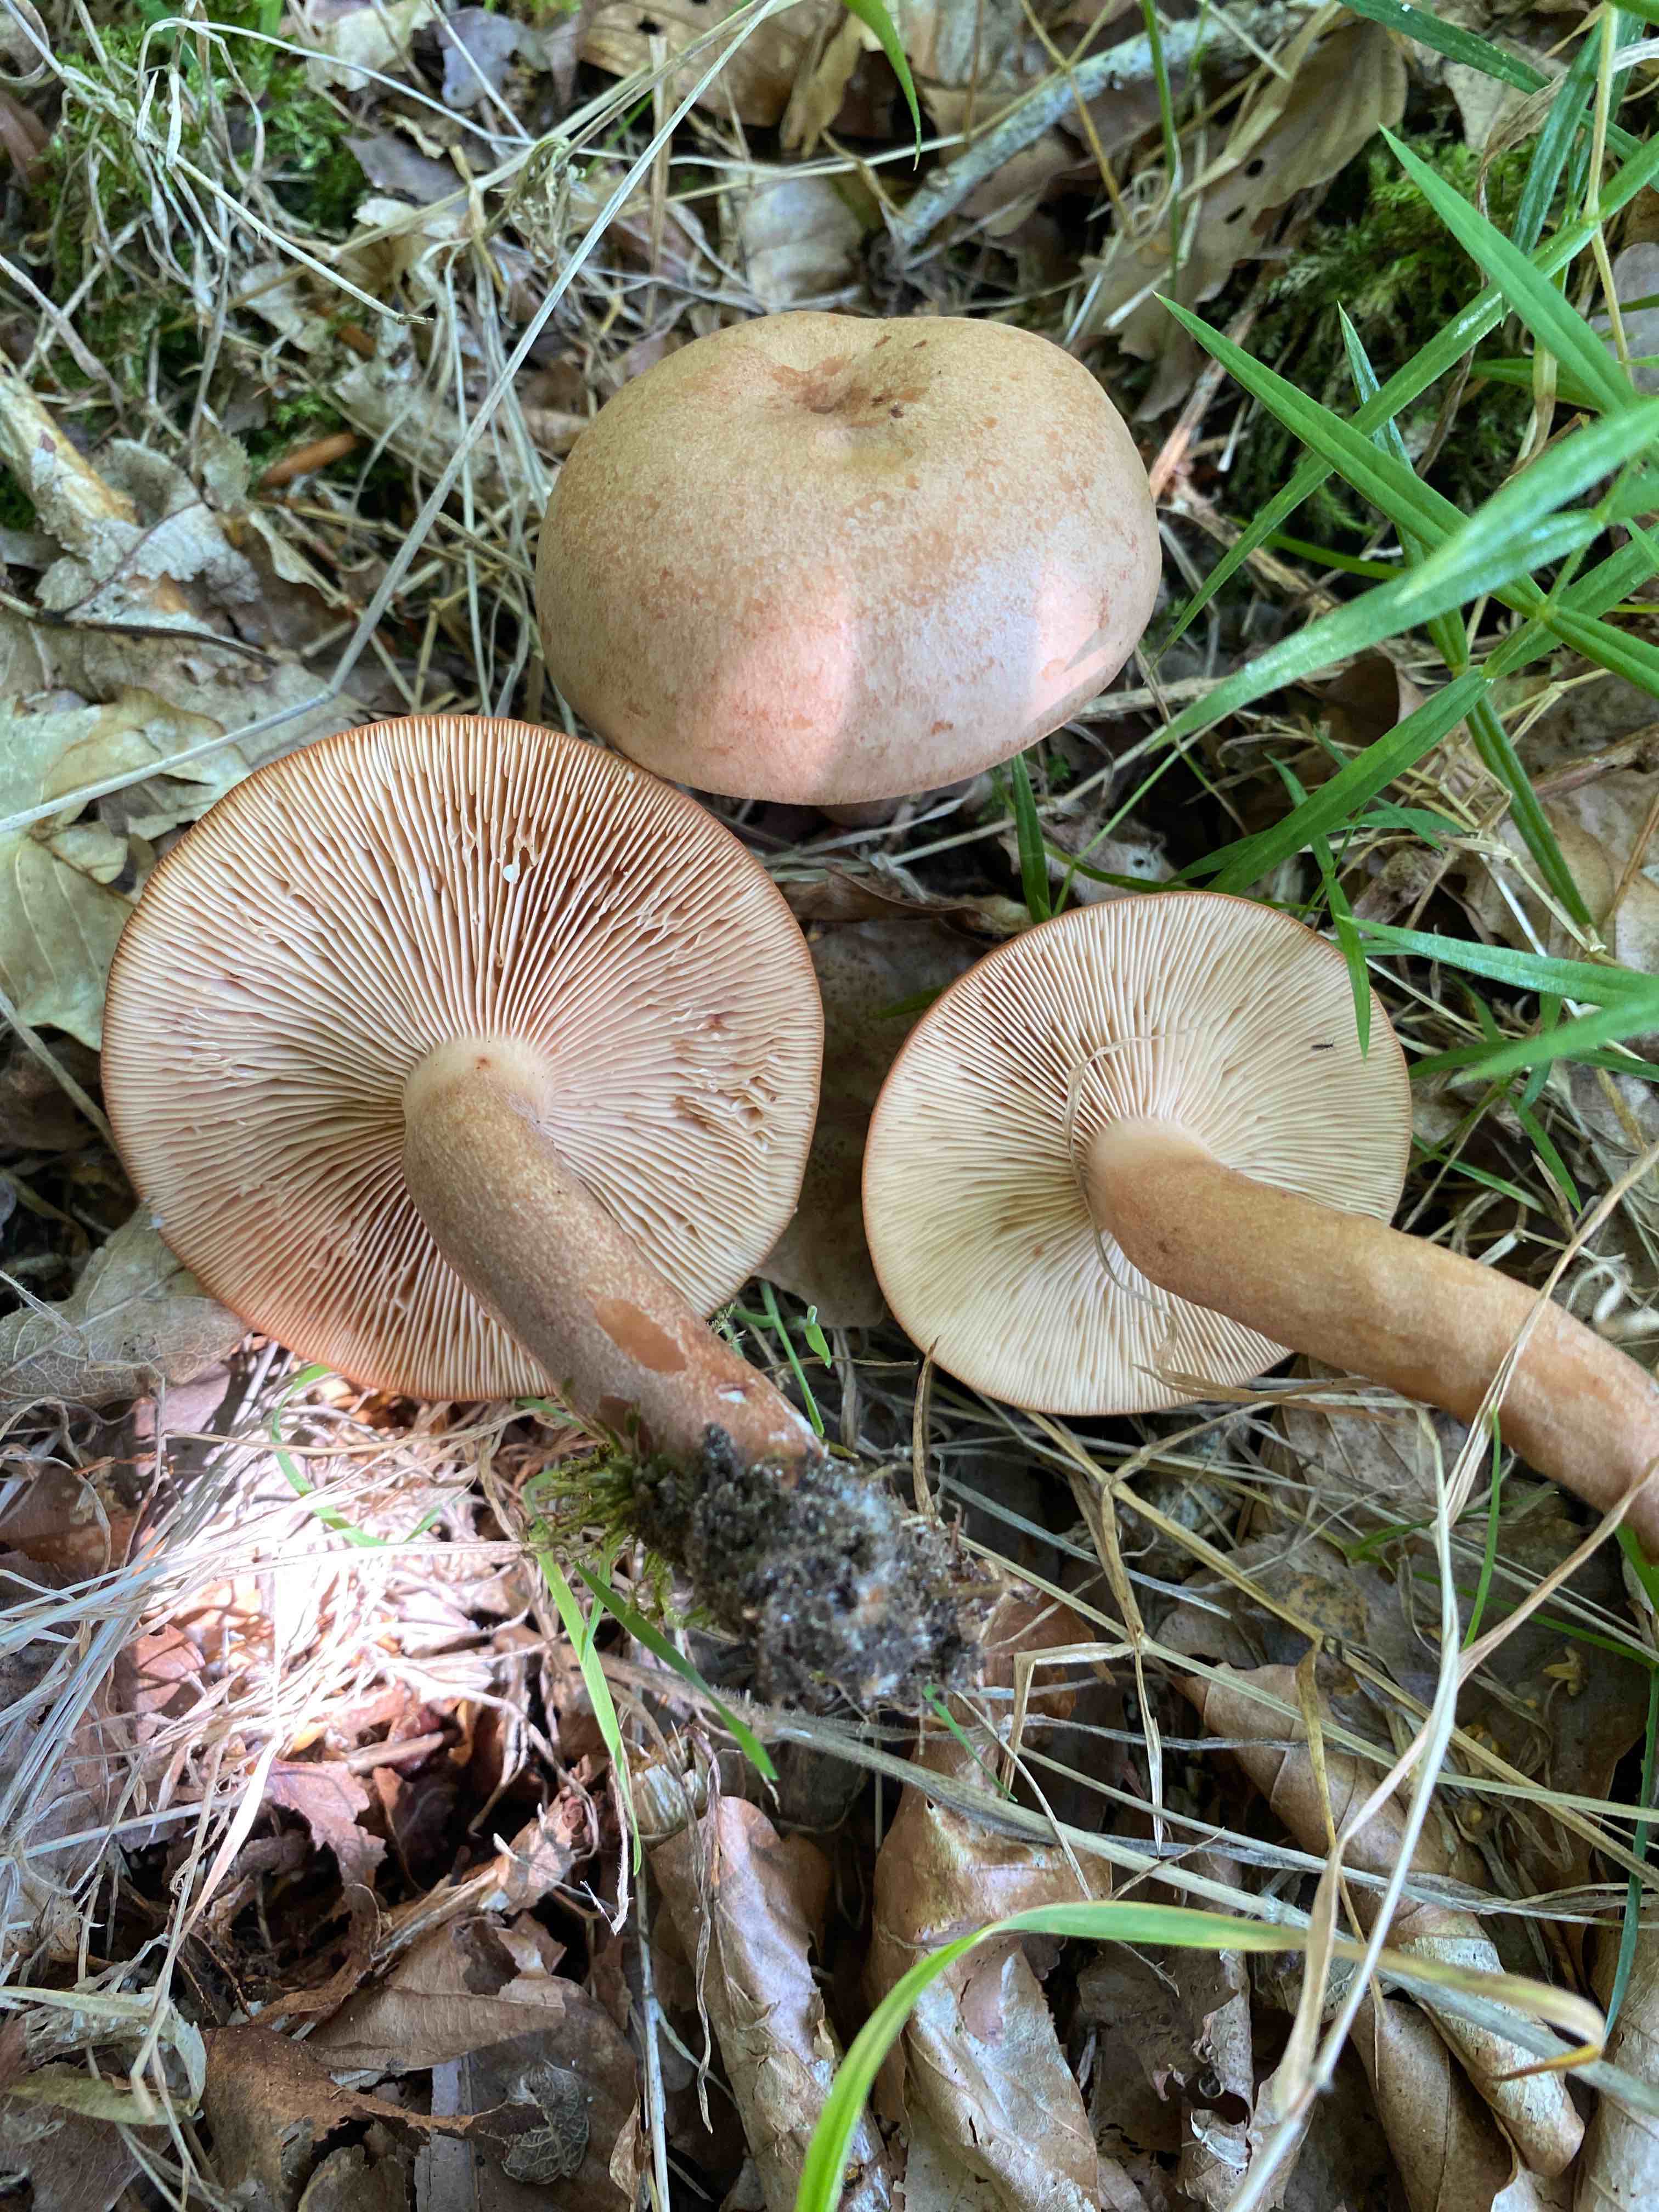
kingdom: Fungi
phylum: Basidiomycota
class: Agaricomycetes
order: Russulales
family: Russulaceae
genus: Lactarius
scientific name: Lactarius helvus
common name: mose-mælkehat
